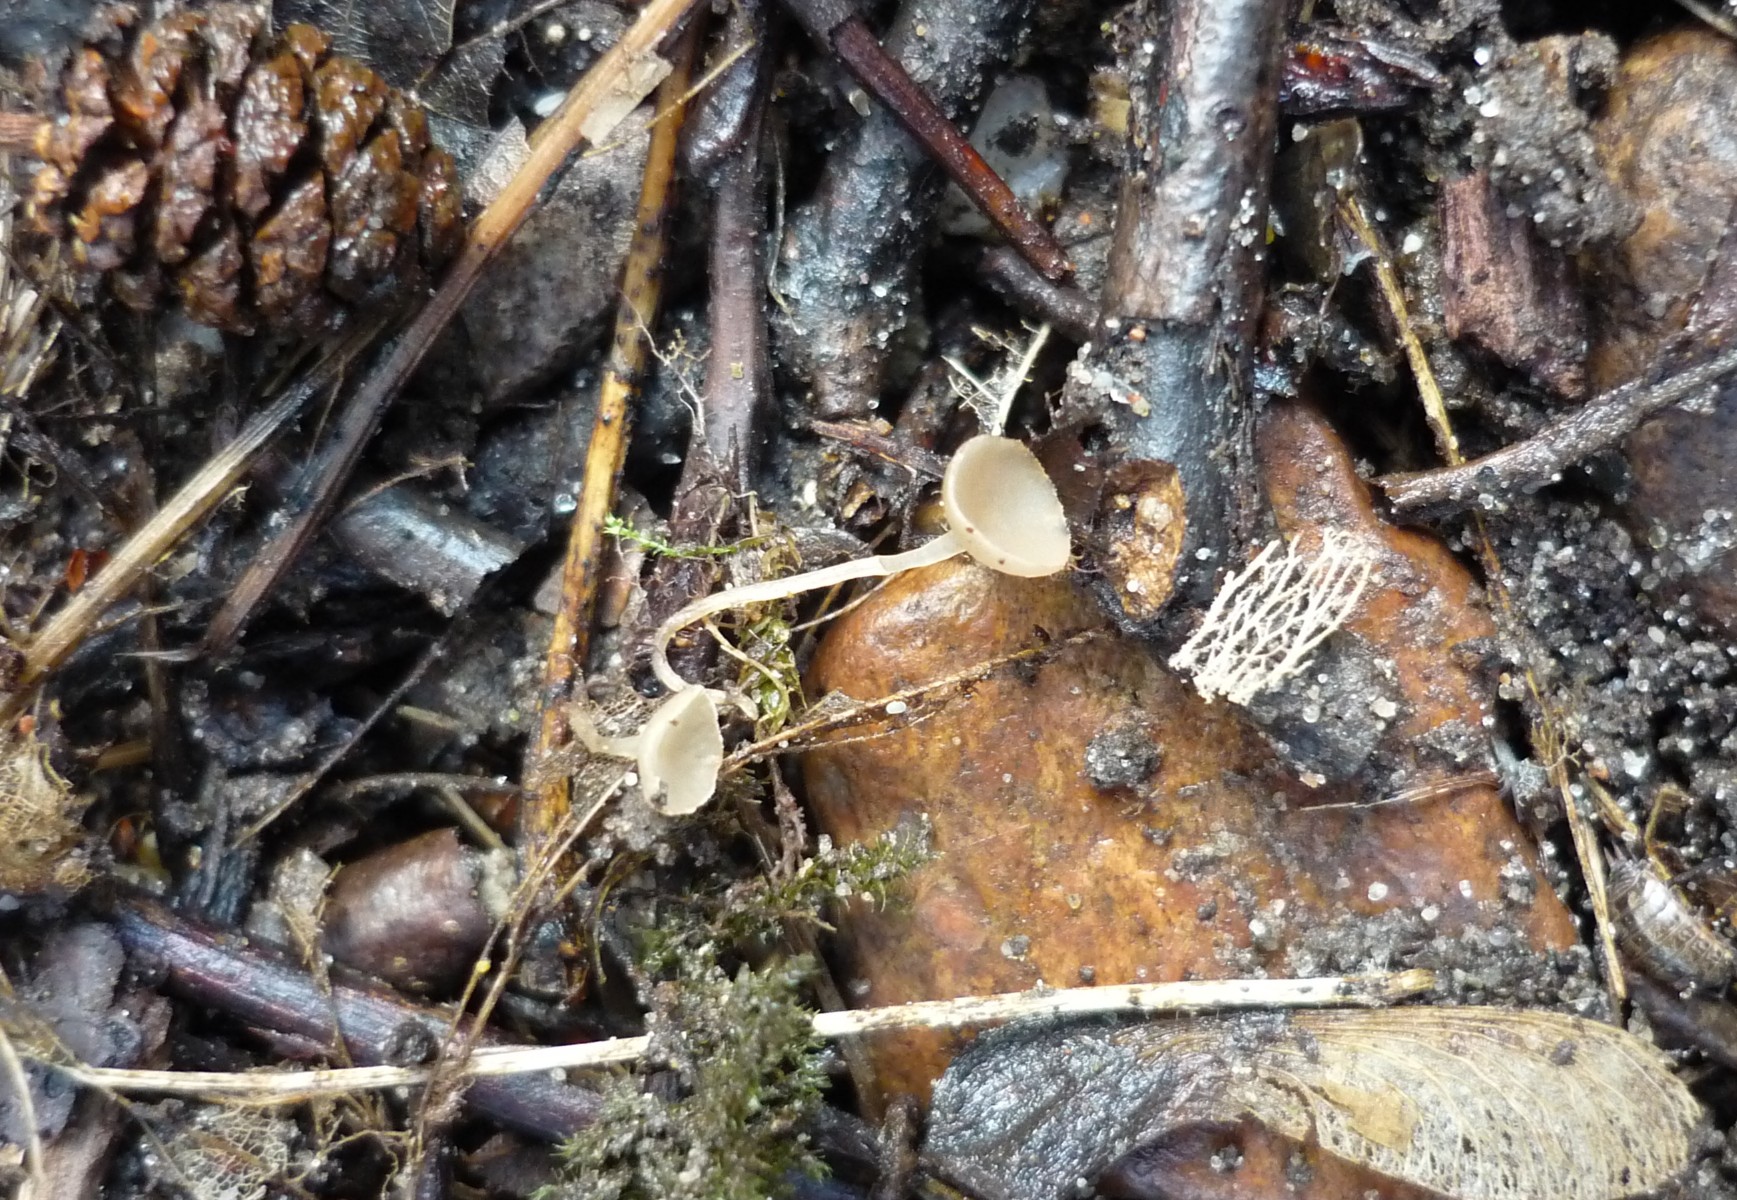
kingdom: Fungi
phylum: Ascomycota
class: Leotiomycetes
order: Helotiales
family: Sclerotiniaceae
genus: Ciboria
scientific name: Ciboria amentacea
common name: ellerakle-knoldskive
